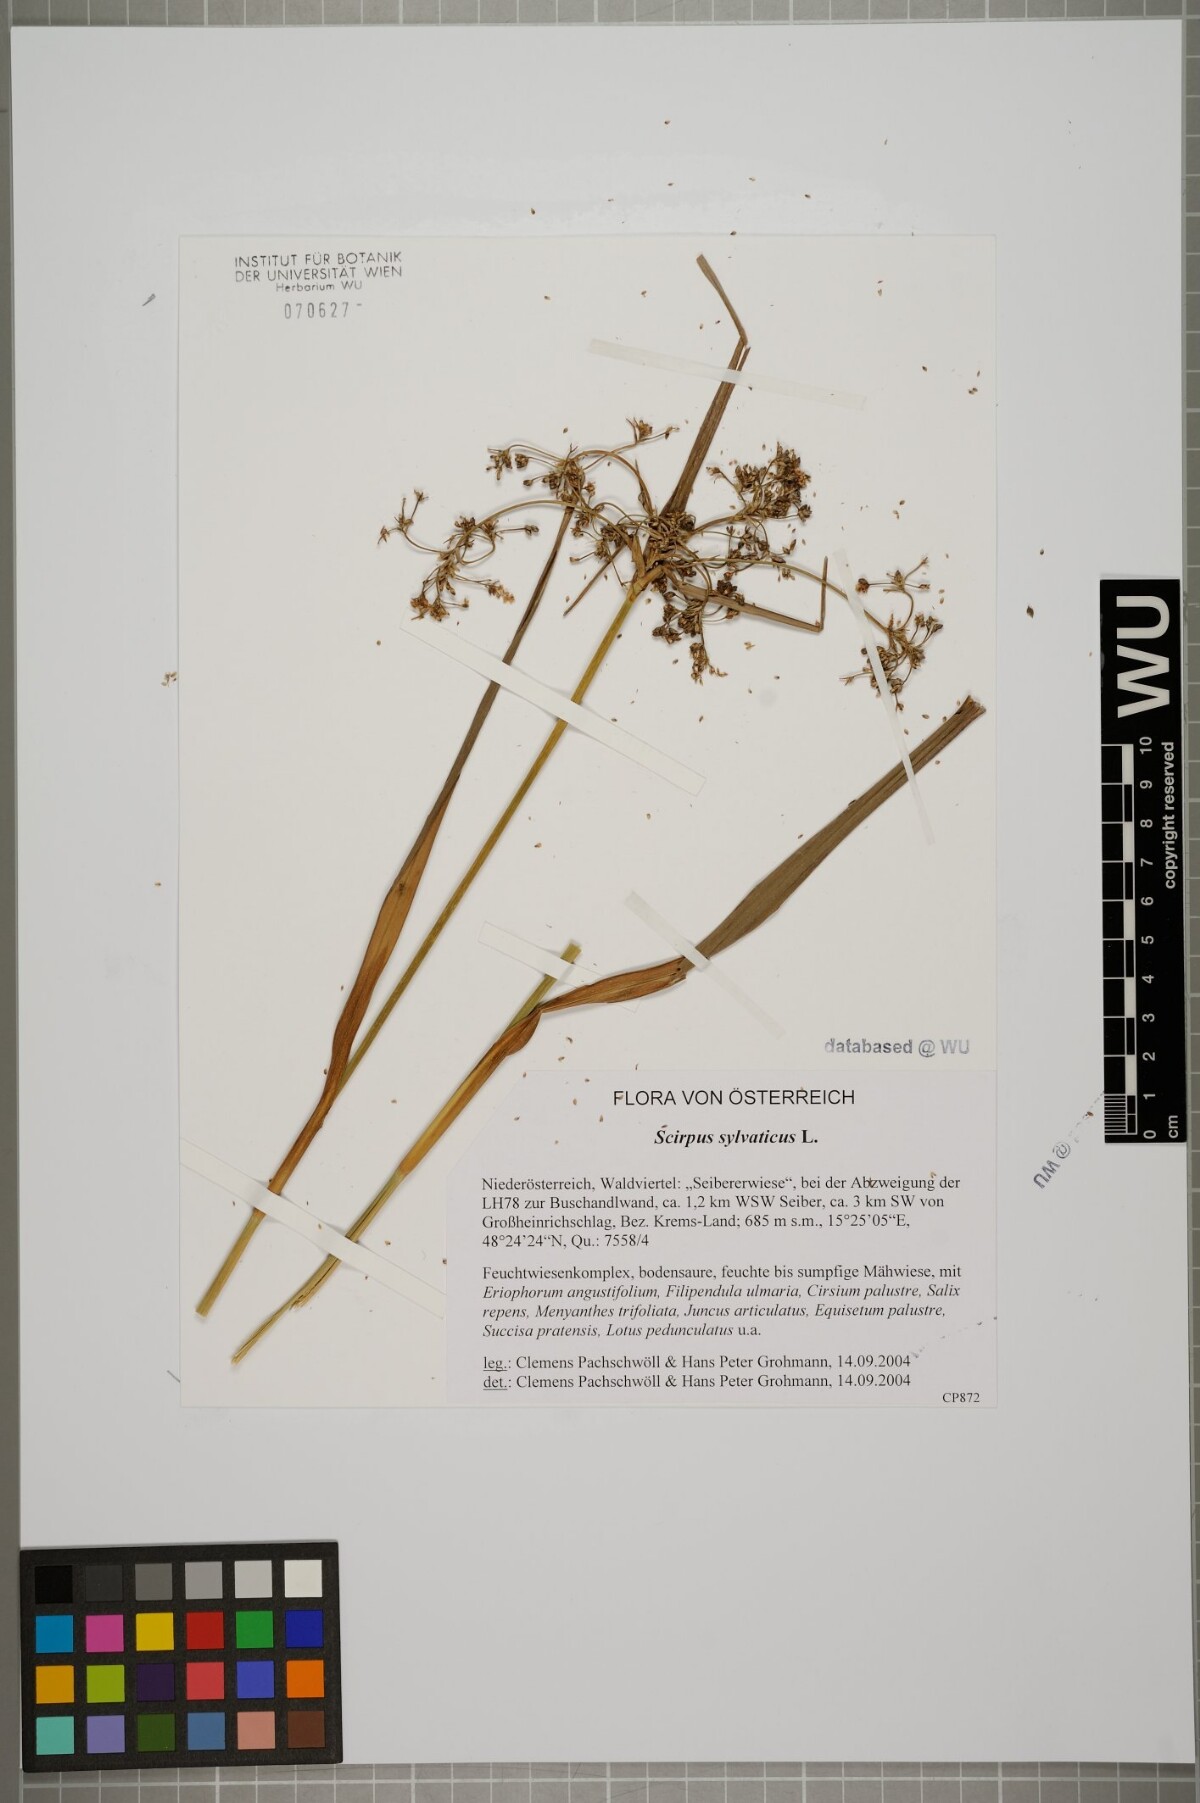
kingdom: Plantae
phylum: Tracheophyta
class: Liliopsida
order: Poales
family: Cyperaceae
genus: Scirpus
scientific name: Scirpus sylvaticus
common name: Wood club-rush
